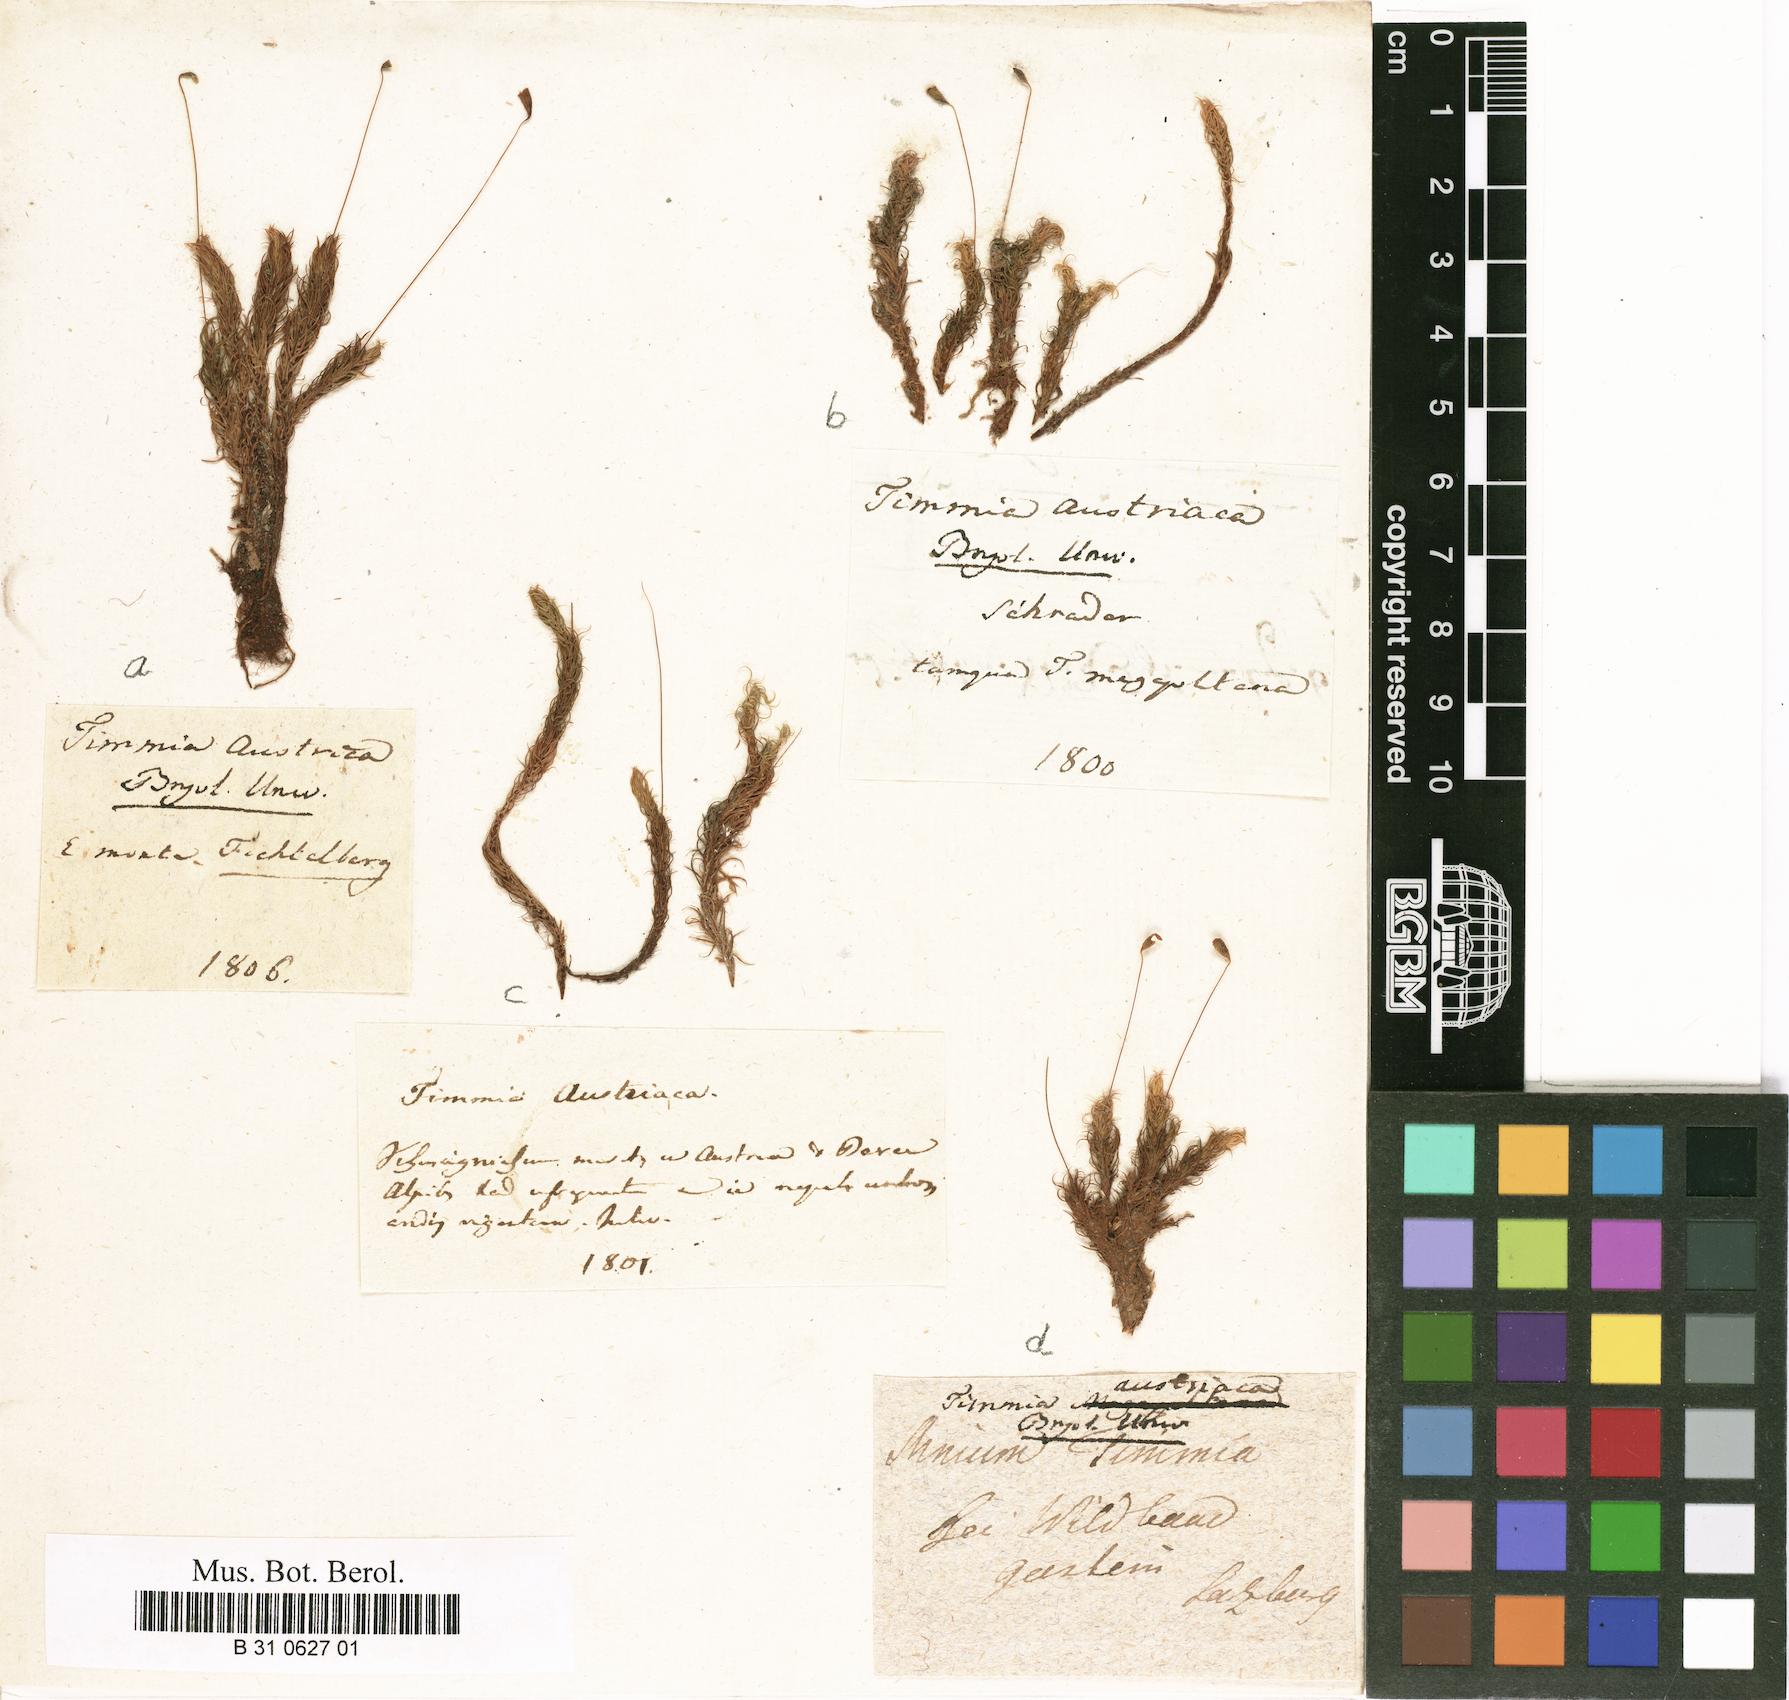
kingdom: Plantae
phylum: Bryophyta
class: Bryopsida
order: Timmiales
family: Timmiaceae
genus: Timmia
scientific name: Timmia austriaca
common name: Austrian timmia
